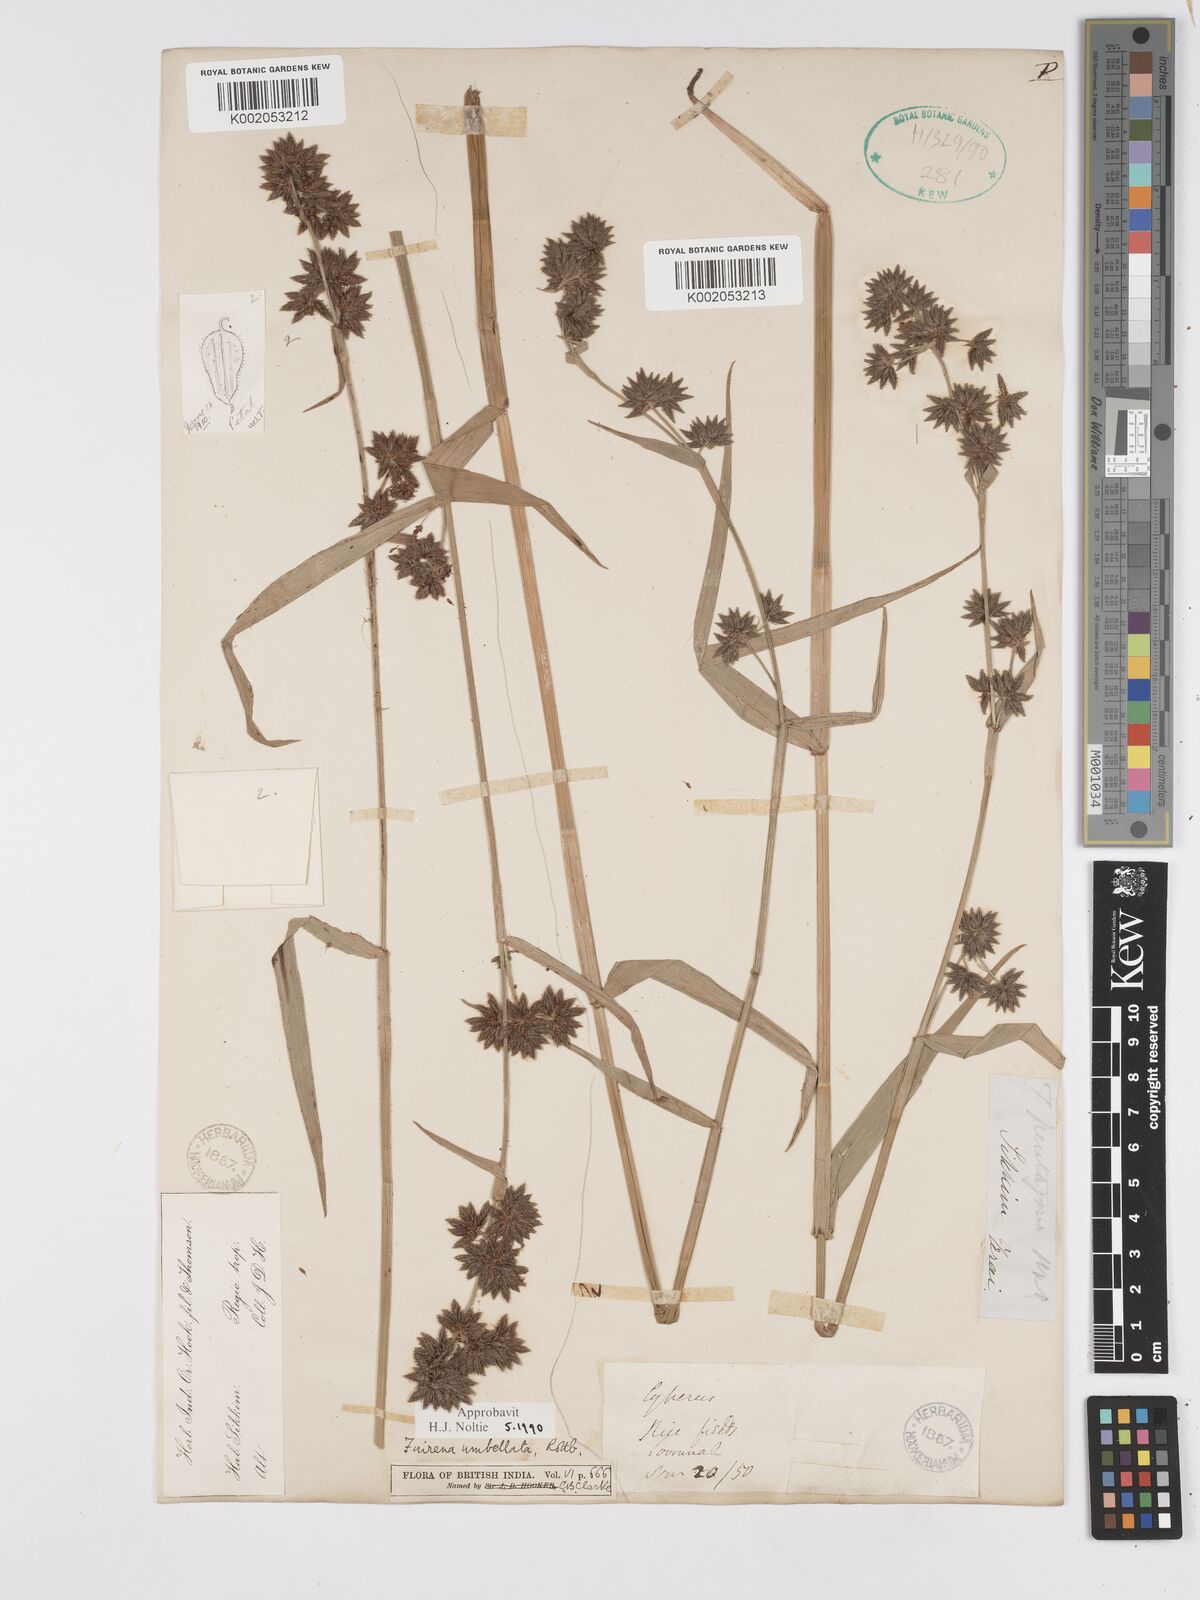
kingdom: Plantae
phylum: Tracheophyta
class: Liliopsida
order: Poales
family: Cyperaceae
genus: Fuirena
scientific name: Fuirena umbellata
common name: Yefen
